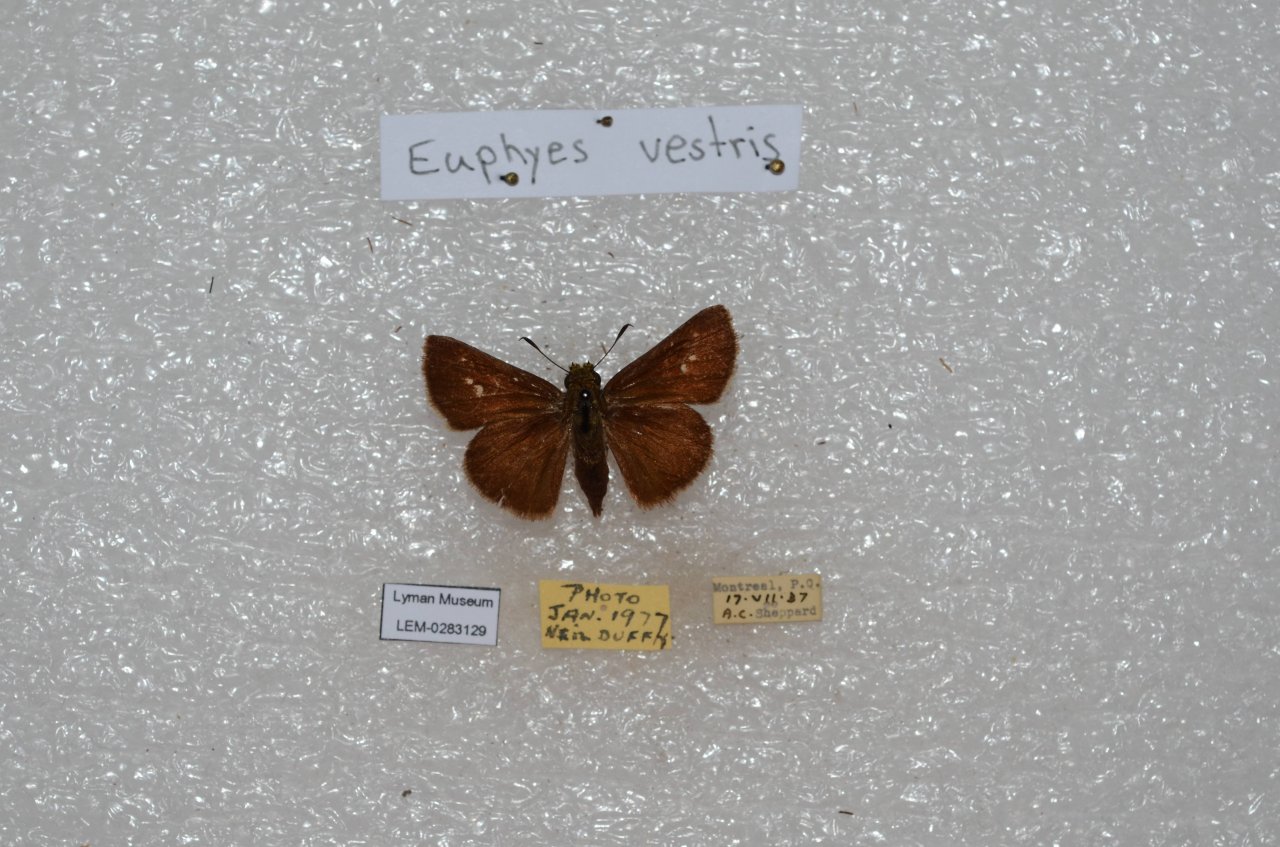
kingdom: Animalia
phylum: Arthropoda
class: Insecta
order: Lepidoptera
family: Hesperiidae
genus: Euphyes
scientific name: Euphyes vestris
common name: Dun Skipper
